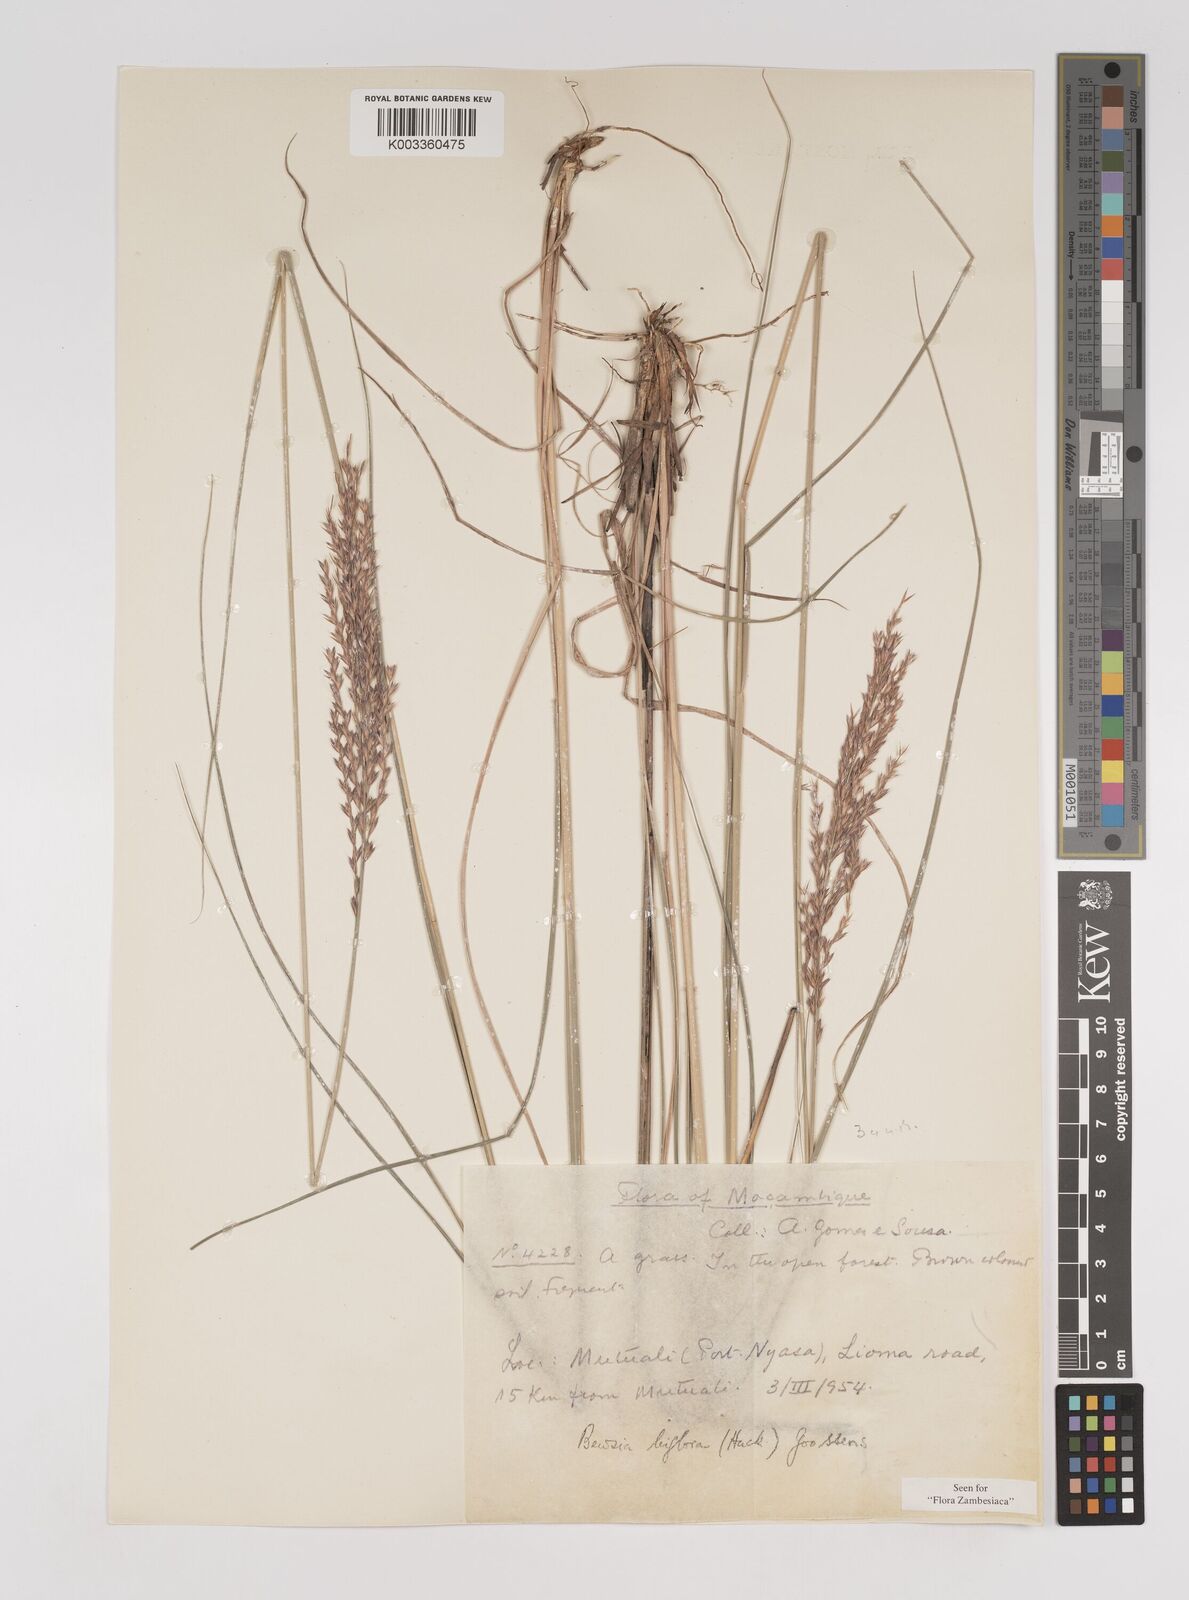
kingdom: Plantae
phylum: Tracheophyta
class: Liliopsida
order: Poales
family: Poaceae
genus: Bewsia
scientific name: Bewsia biflora
